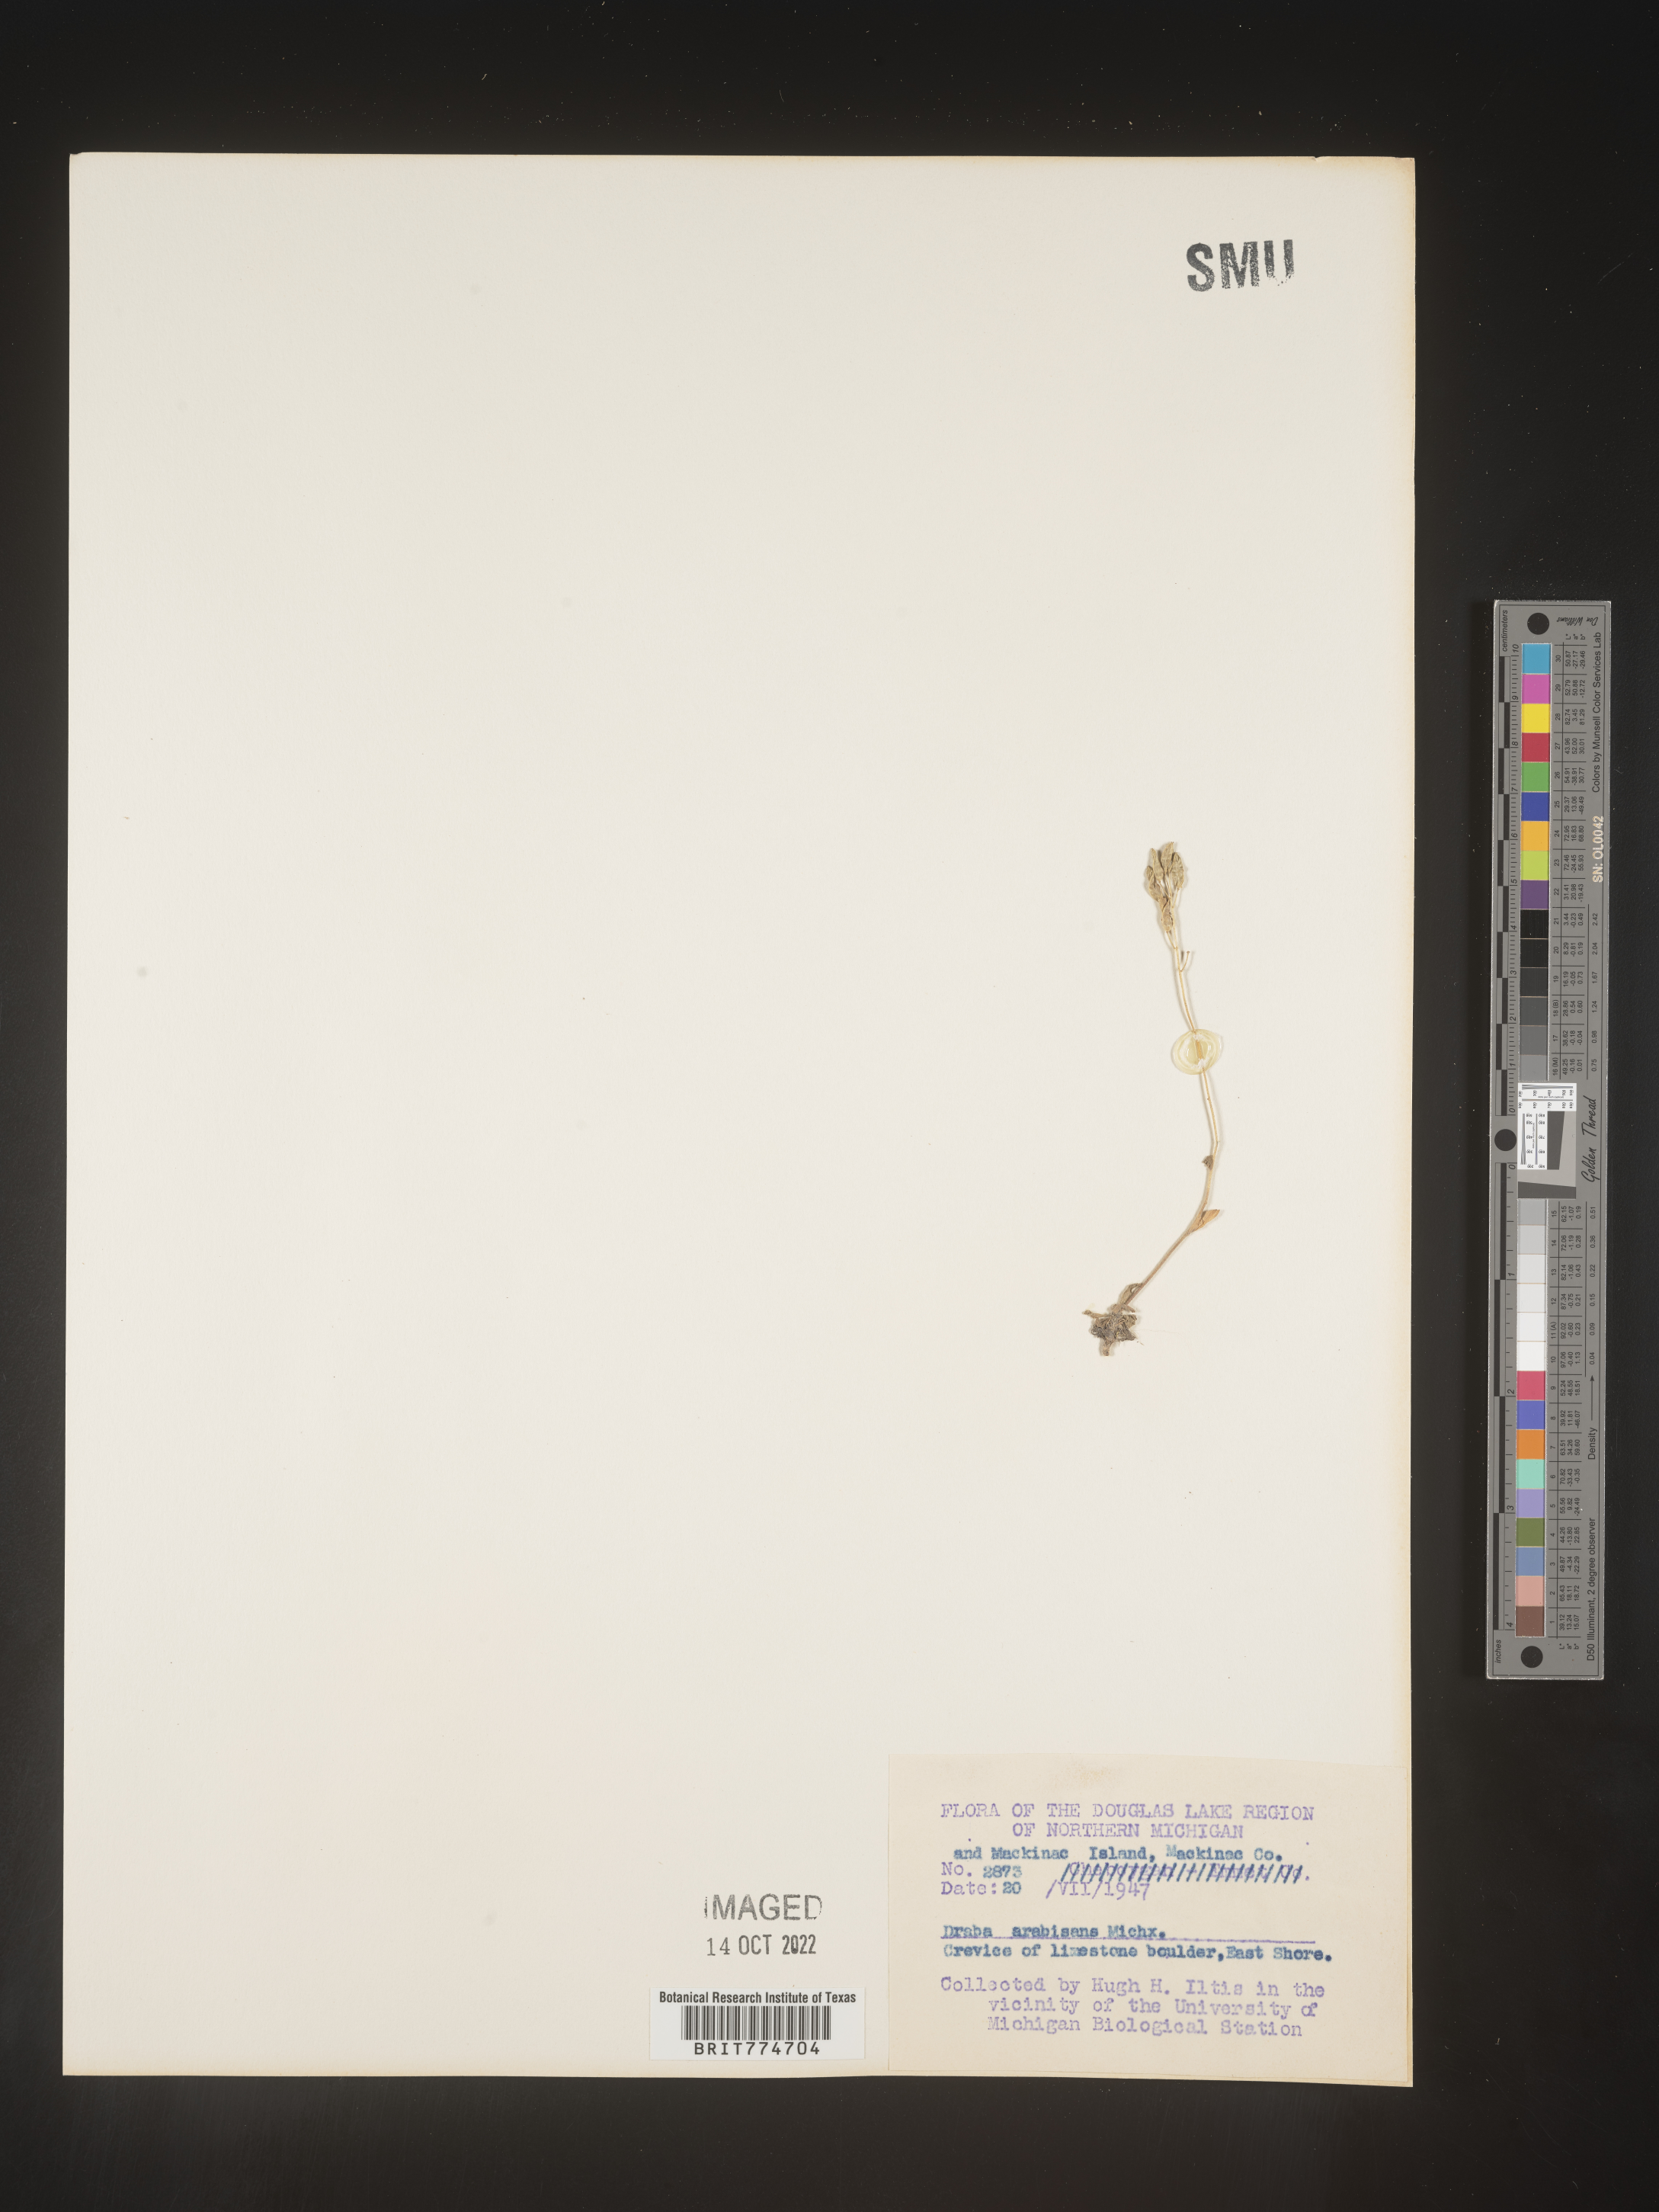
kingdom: Plantae
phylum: Tracheophyta
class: Magnoliopsida
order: Brassicales
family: Brassicaceae
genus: Draba
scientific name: Draba
